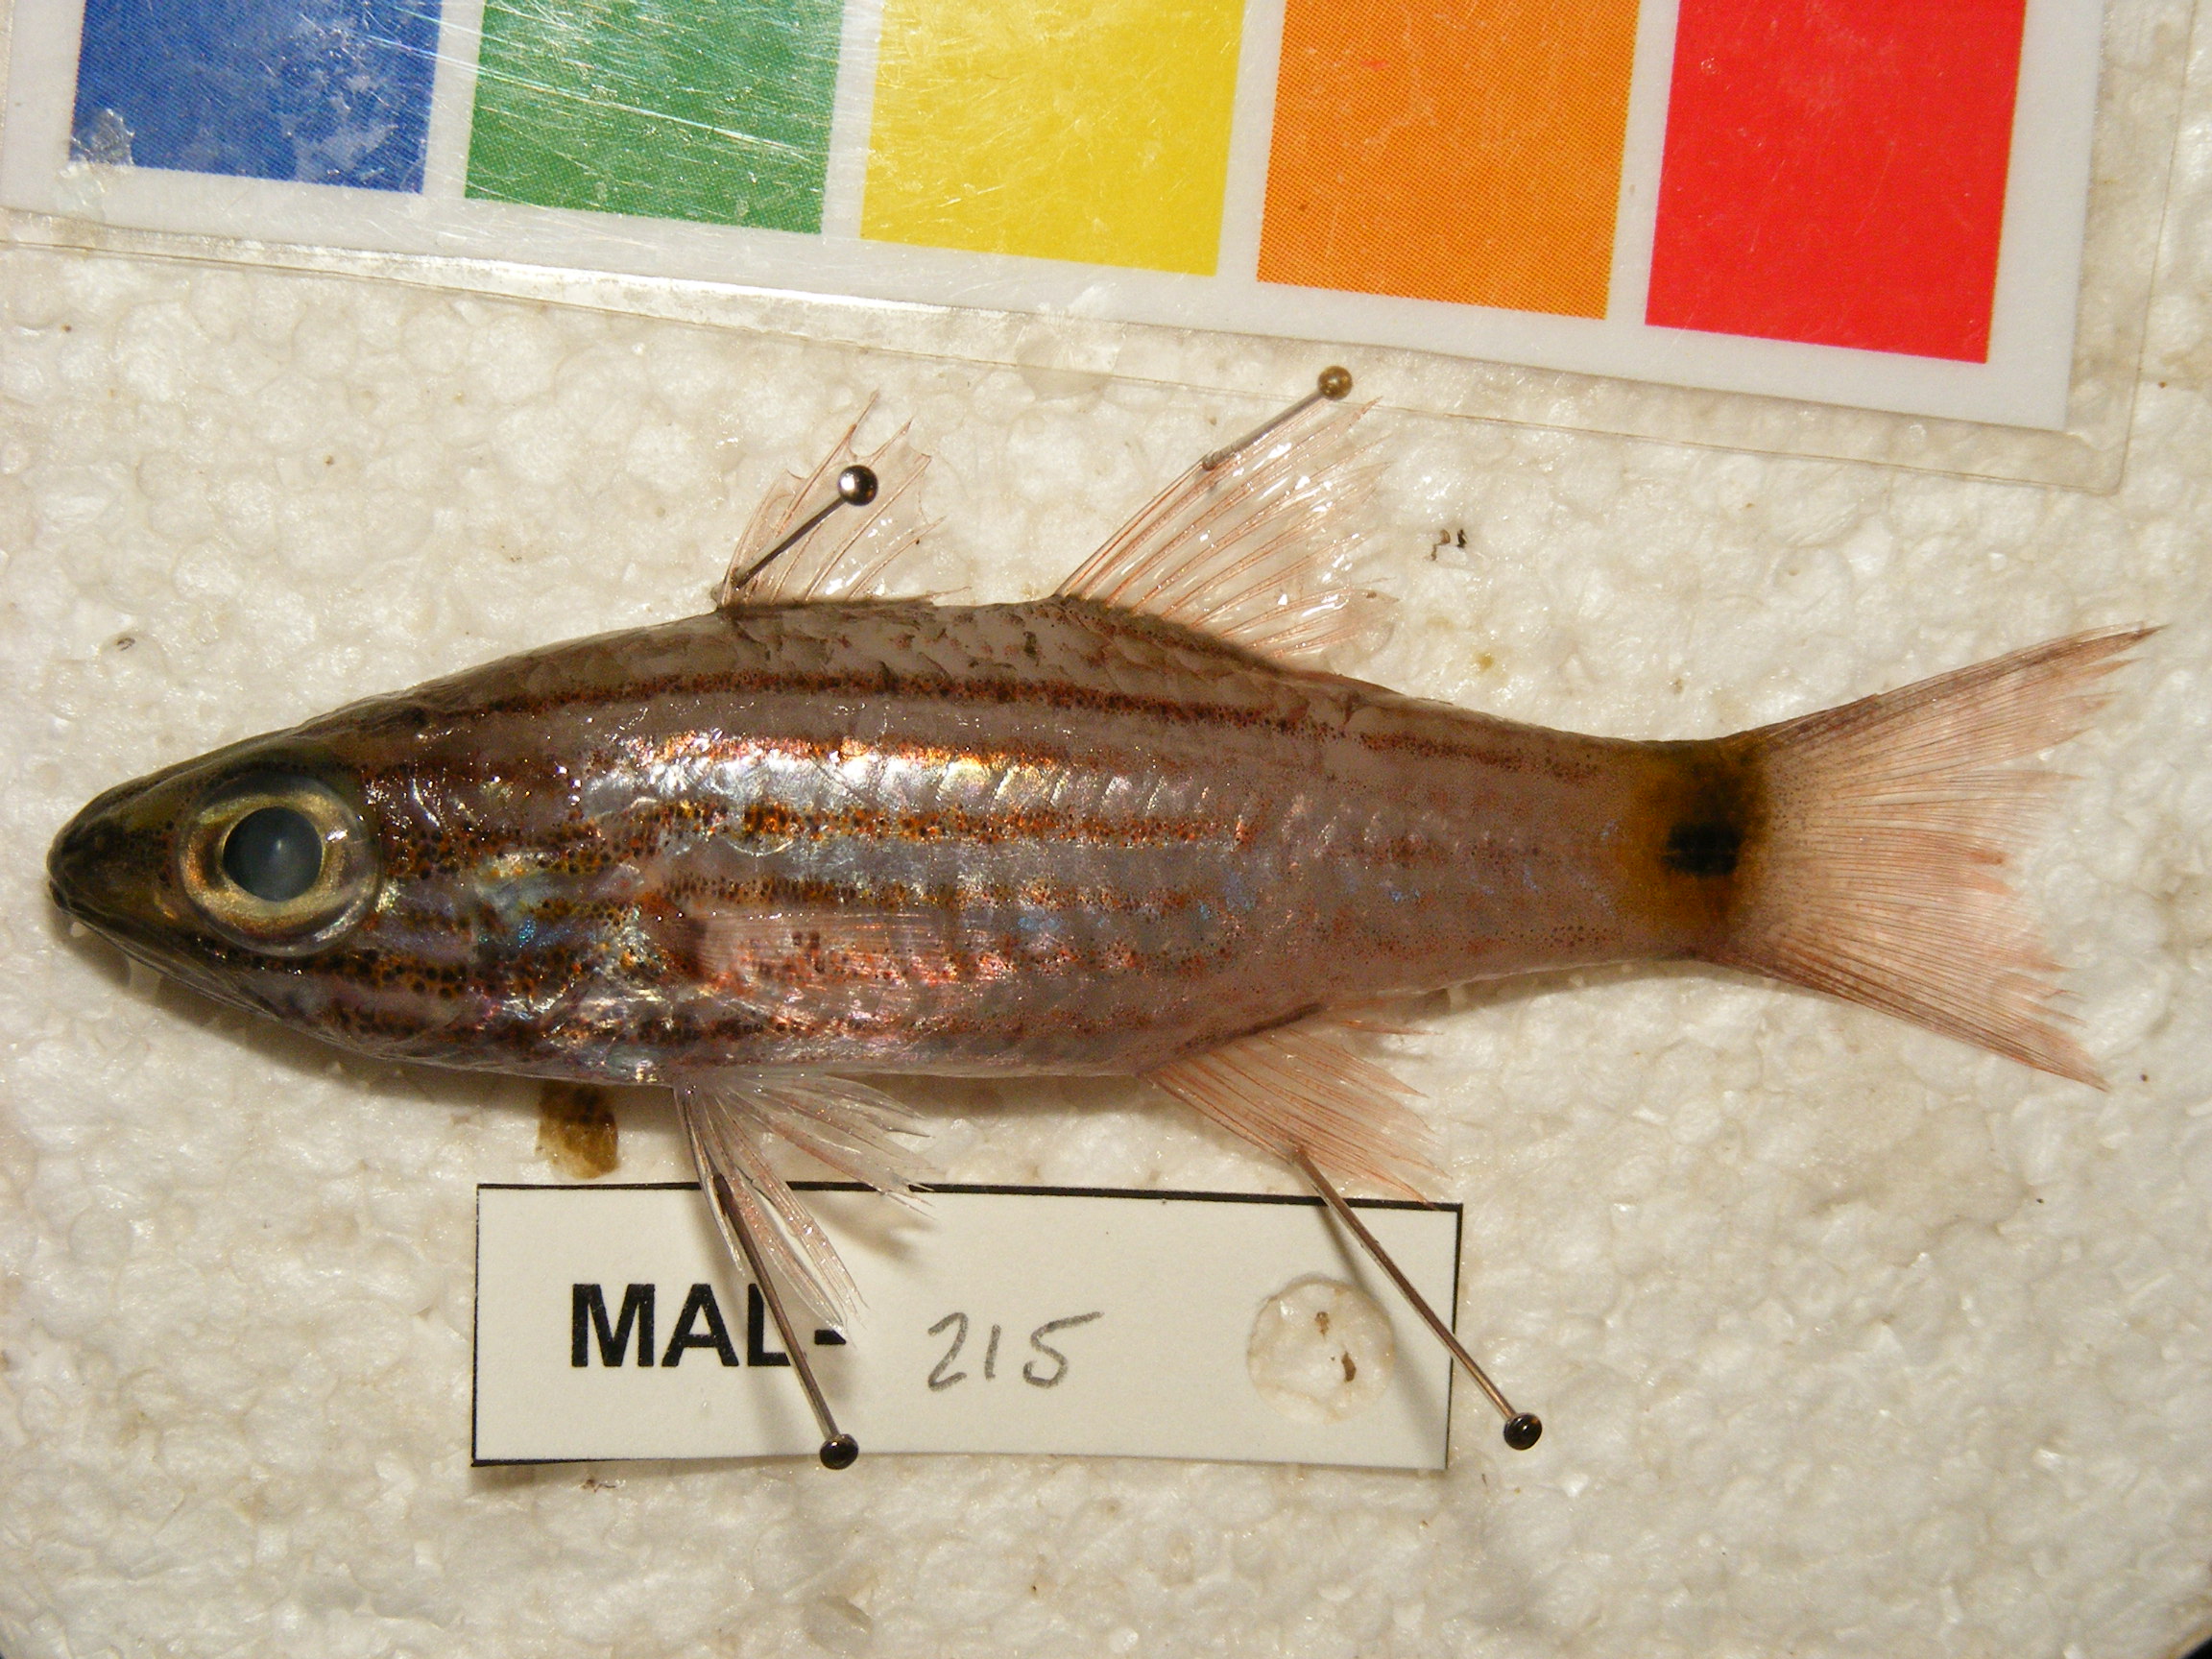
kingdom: Animalia
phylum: Chordata
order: Perciformes
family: Apogonidae
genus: Cheilodipterus
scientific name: Cheilodipterus artus
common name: Wolf cardinal
